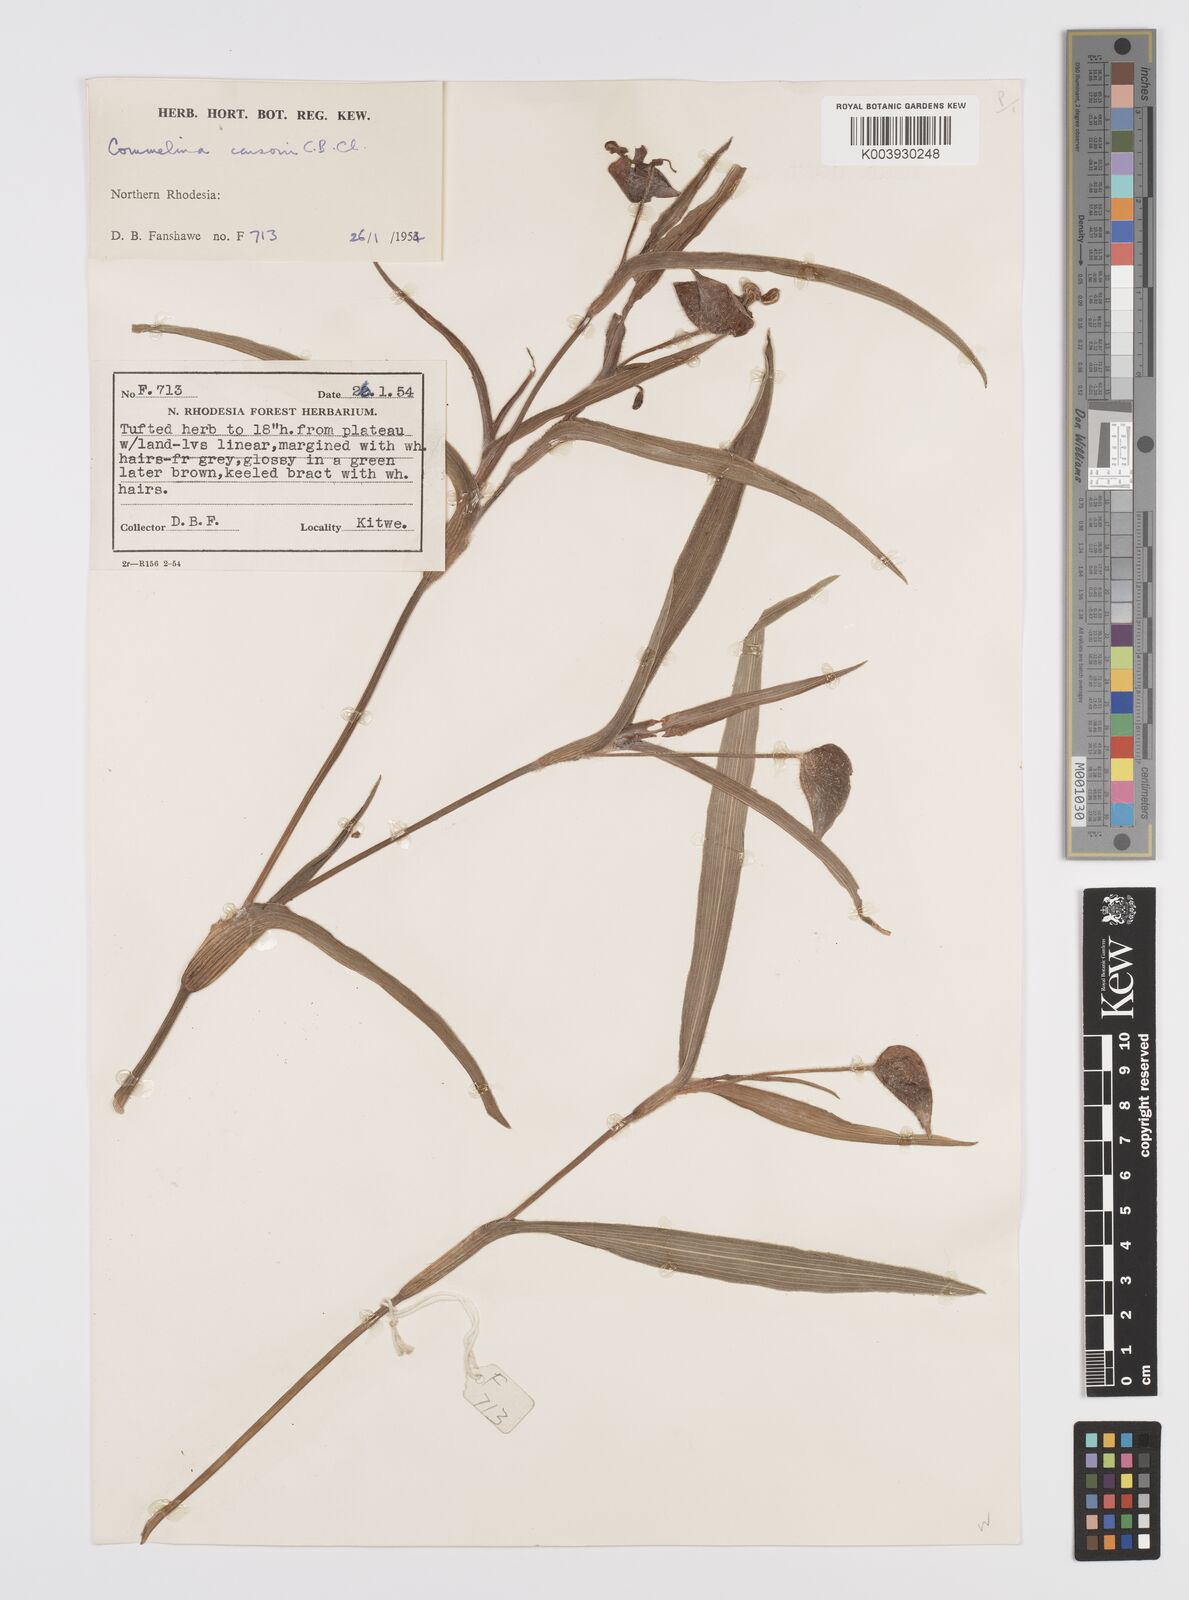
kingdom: Plantae
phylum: Tracheophyta
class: Liliopsida
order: Commelinales
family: Commelinaceae
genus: Commelina
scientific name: Commelina schweinfurthii
